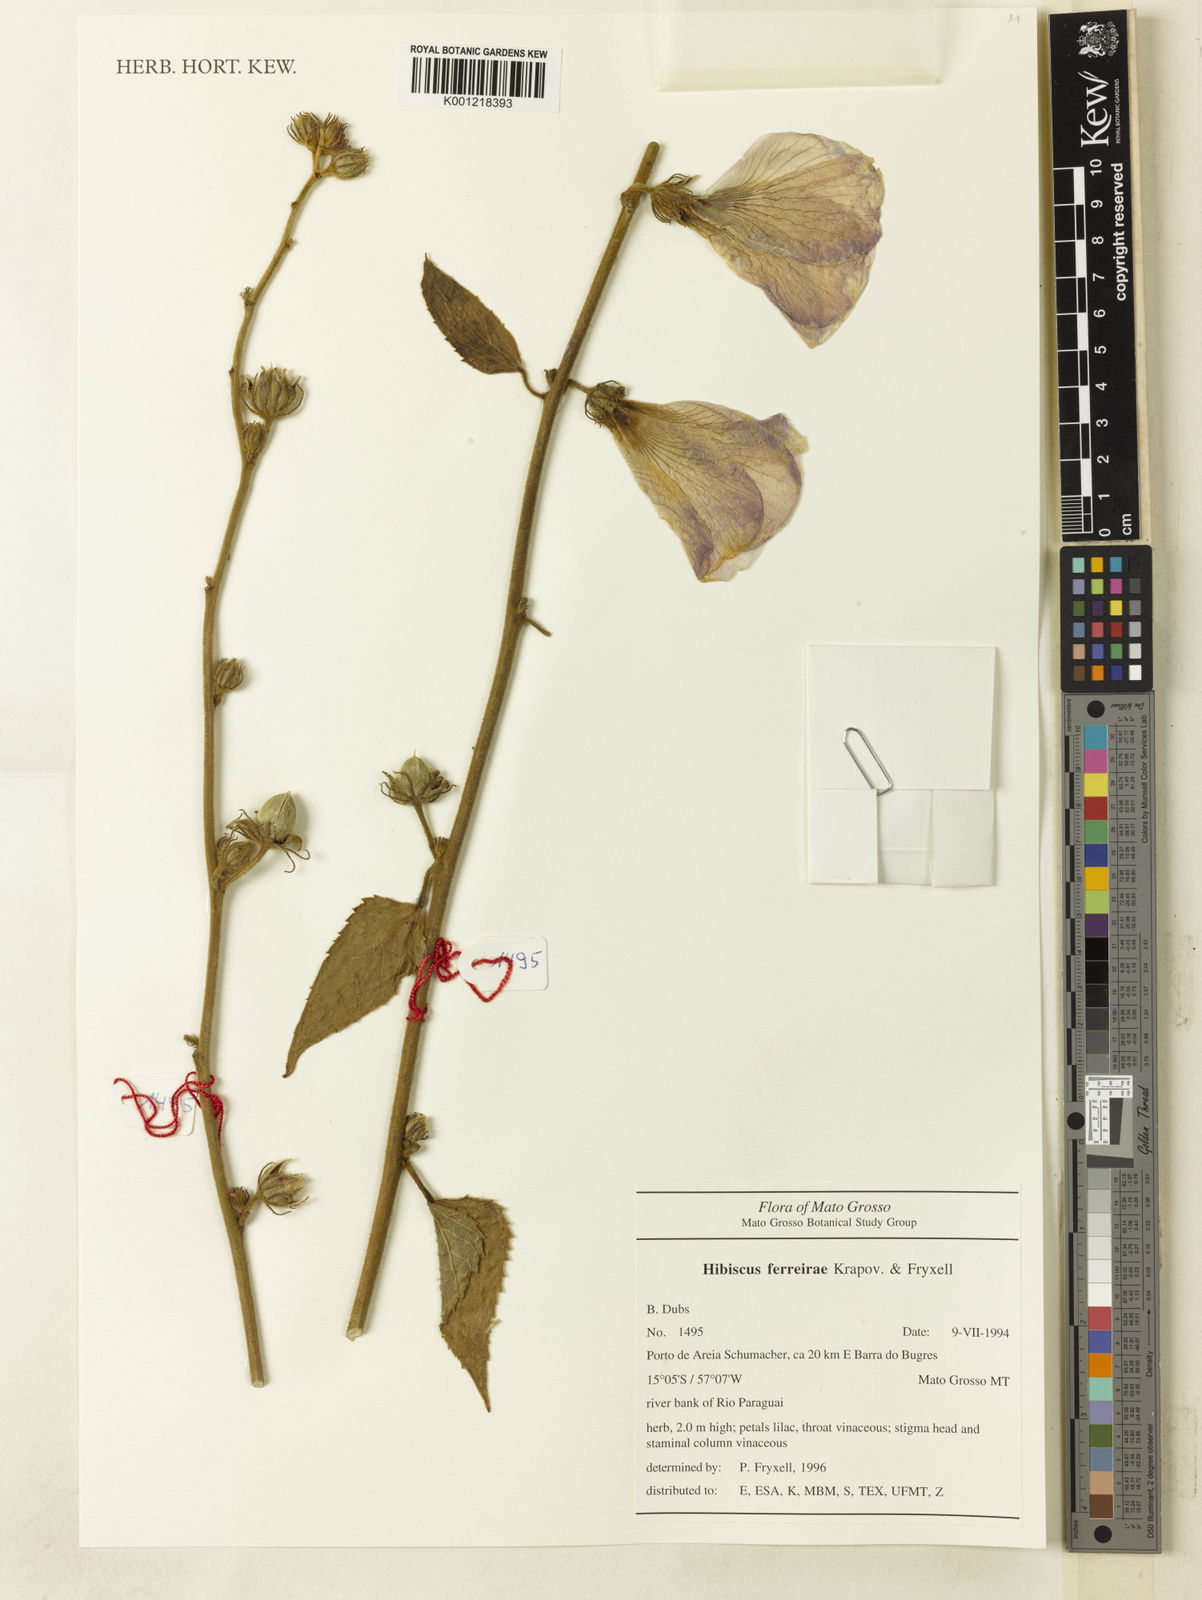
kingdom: Plantae
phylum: Tracheophyta
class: Magnoliopsida
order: Malvales
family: Malvaceae
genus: Hibiscus
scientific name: Hibiscus ferreirae
